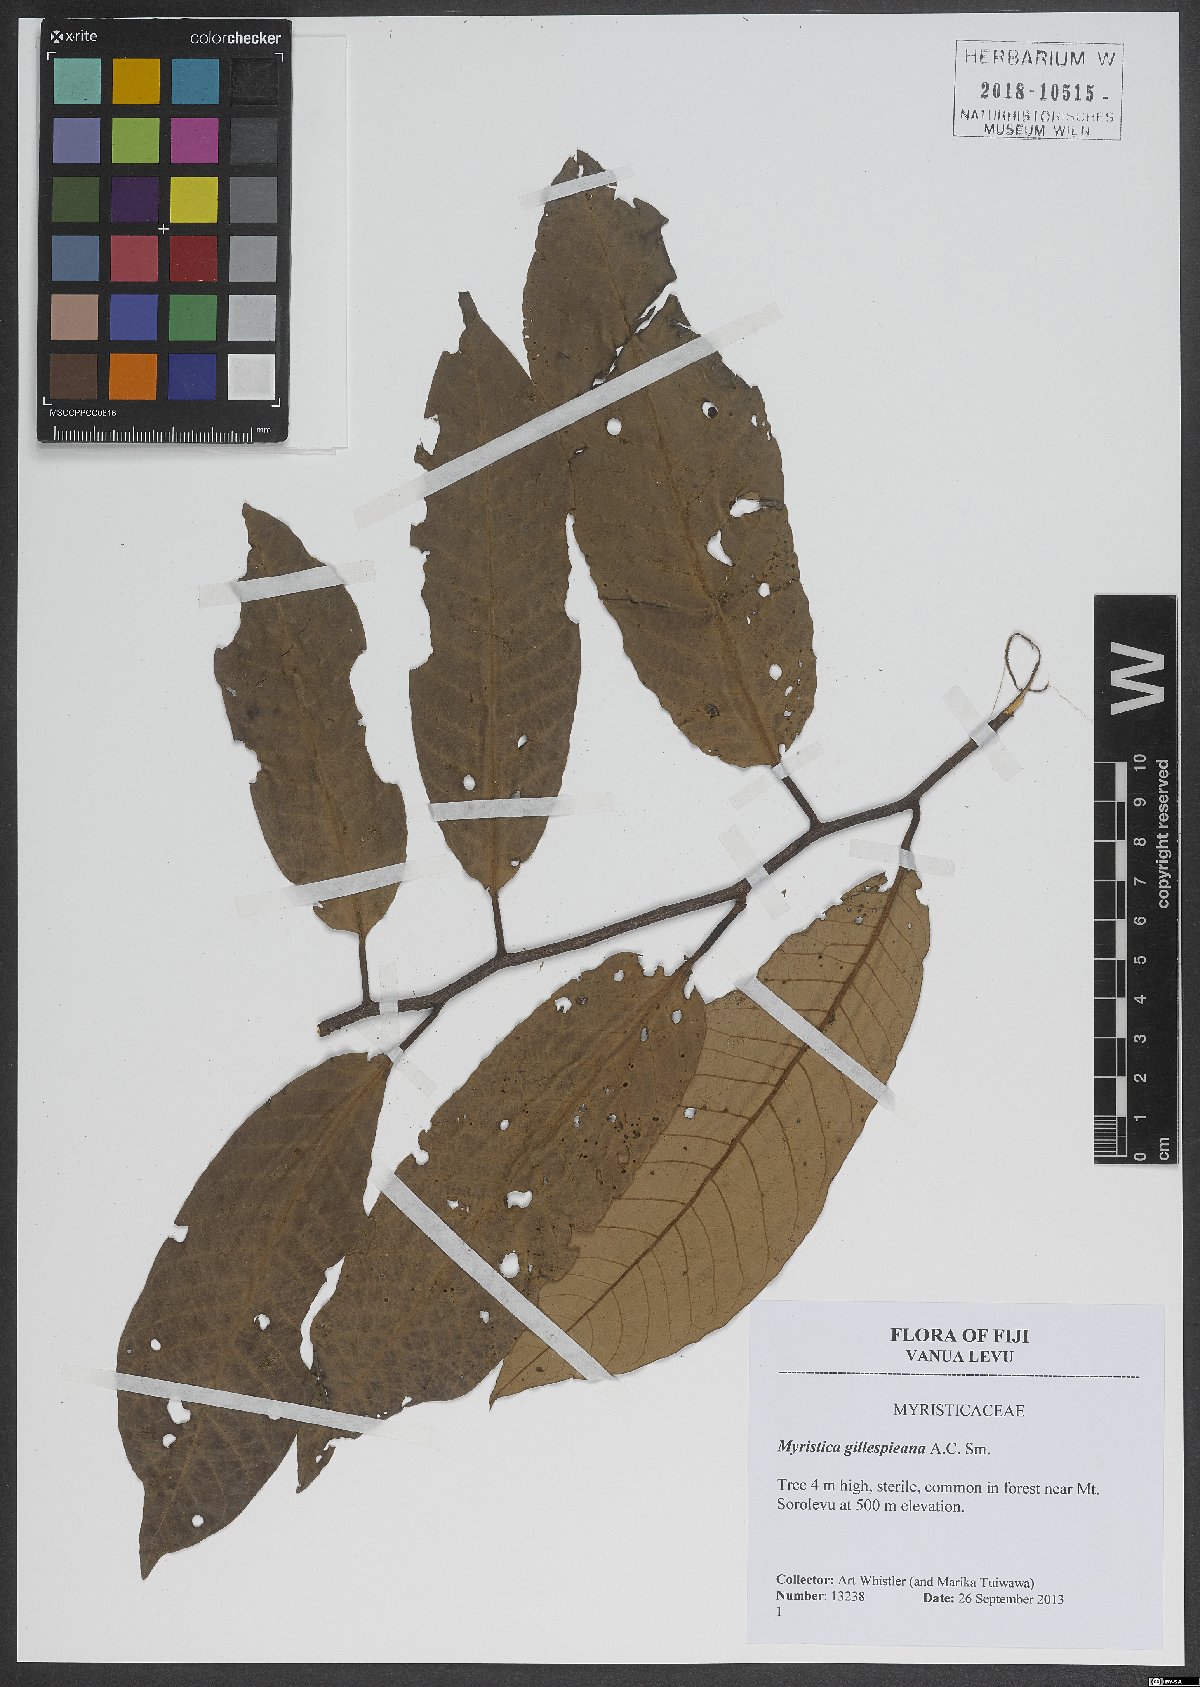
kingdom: Plantae
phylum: Tracheophyta
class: Magnoliopsida
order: Magnoliales
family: Myristicaceae
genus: Myristica
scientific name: Myristica gillespieana
